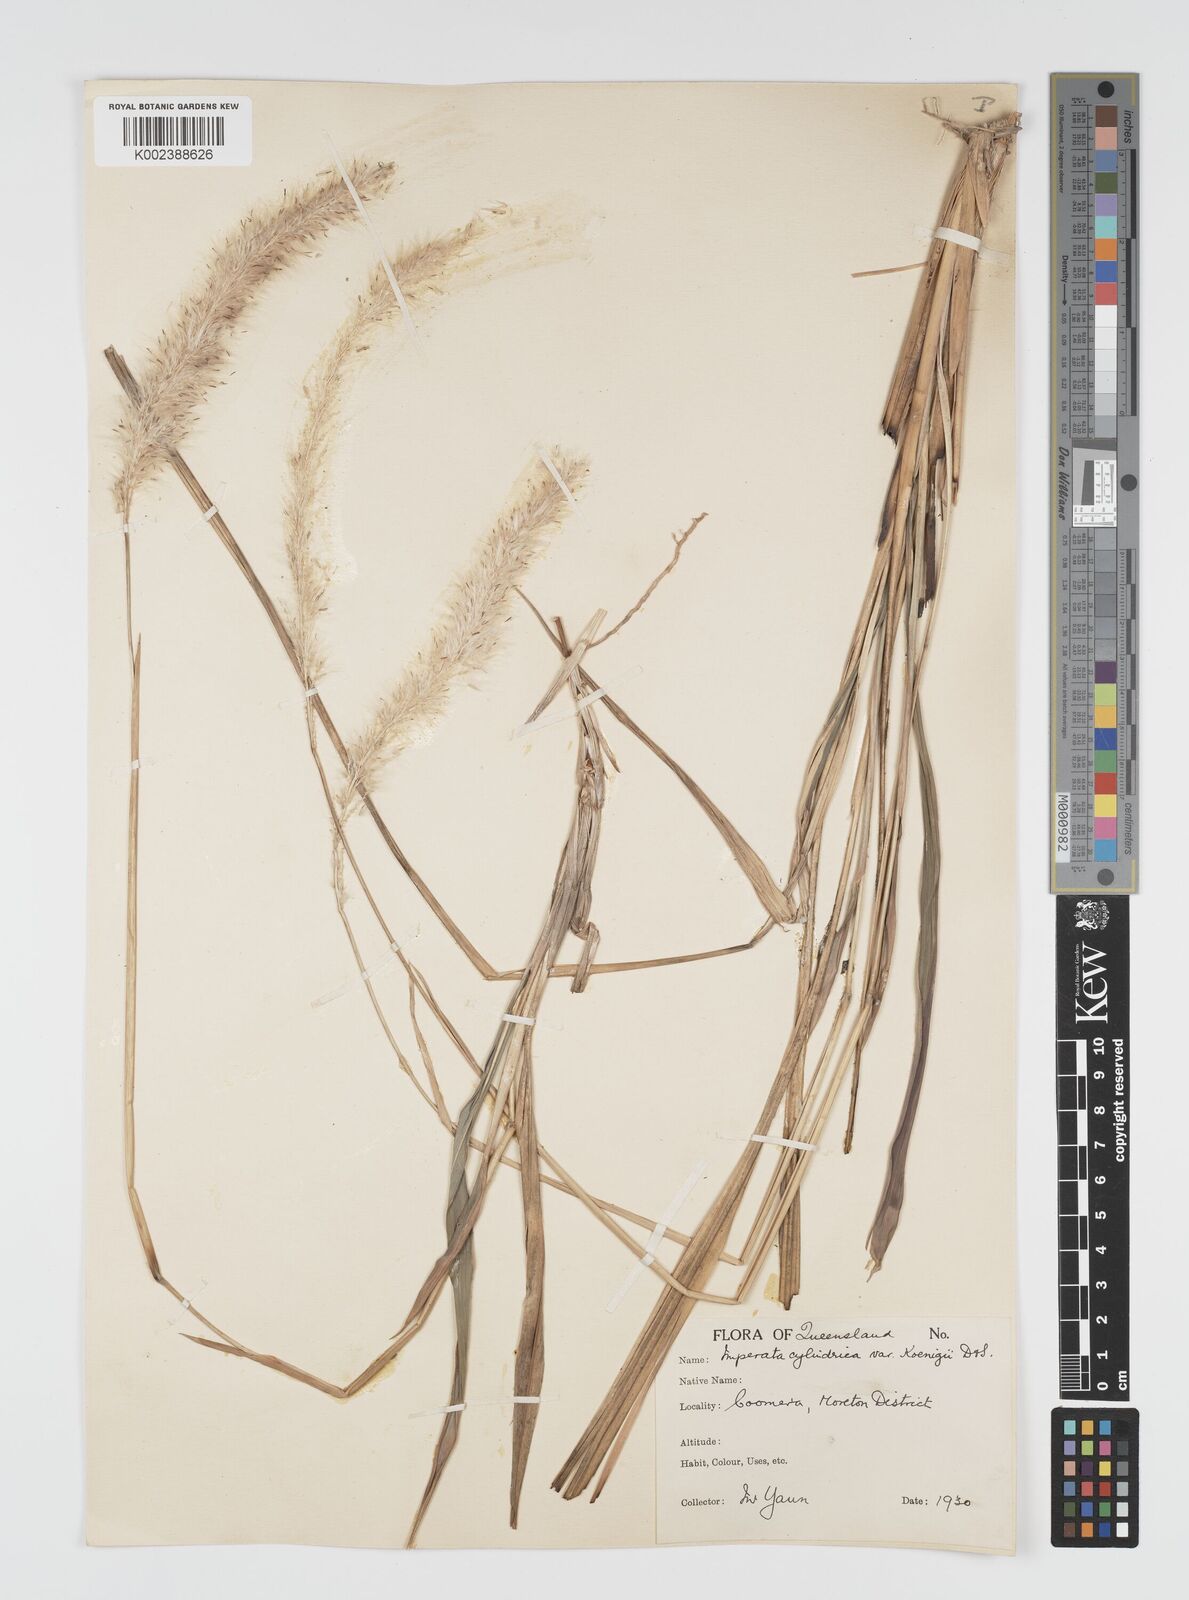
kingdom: Plantae
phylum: Tracheophyta
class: Liliopsida
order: Poales
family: Poaceae
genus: Imperata
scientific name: Imperata cylindrica
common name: Cogongrass
